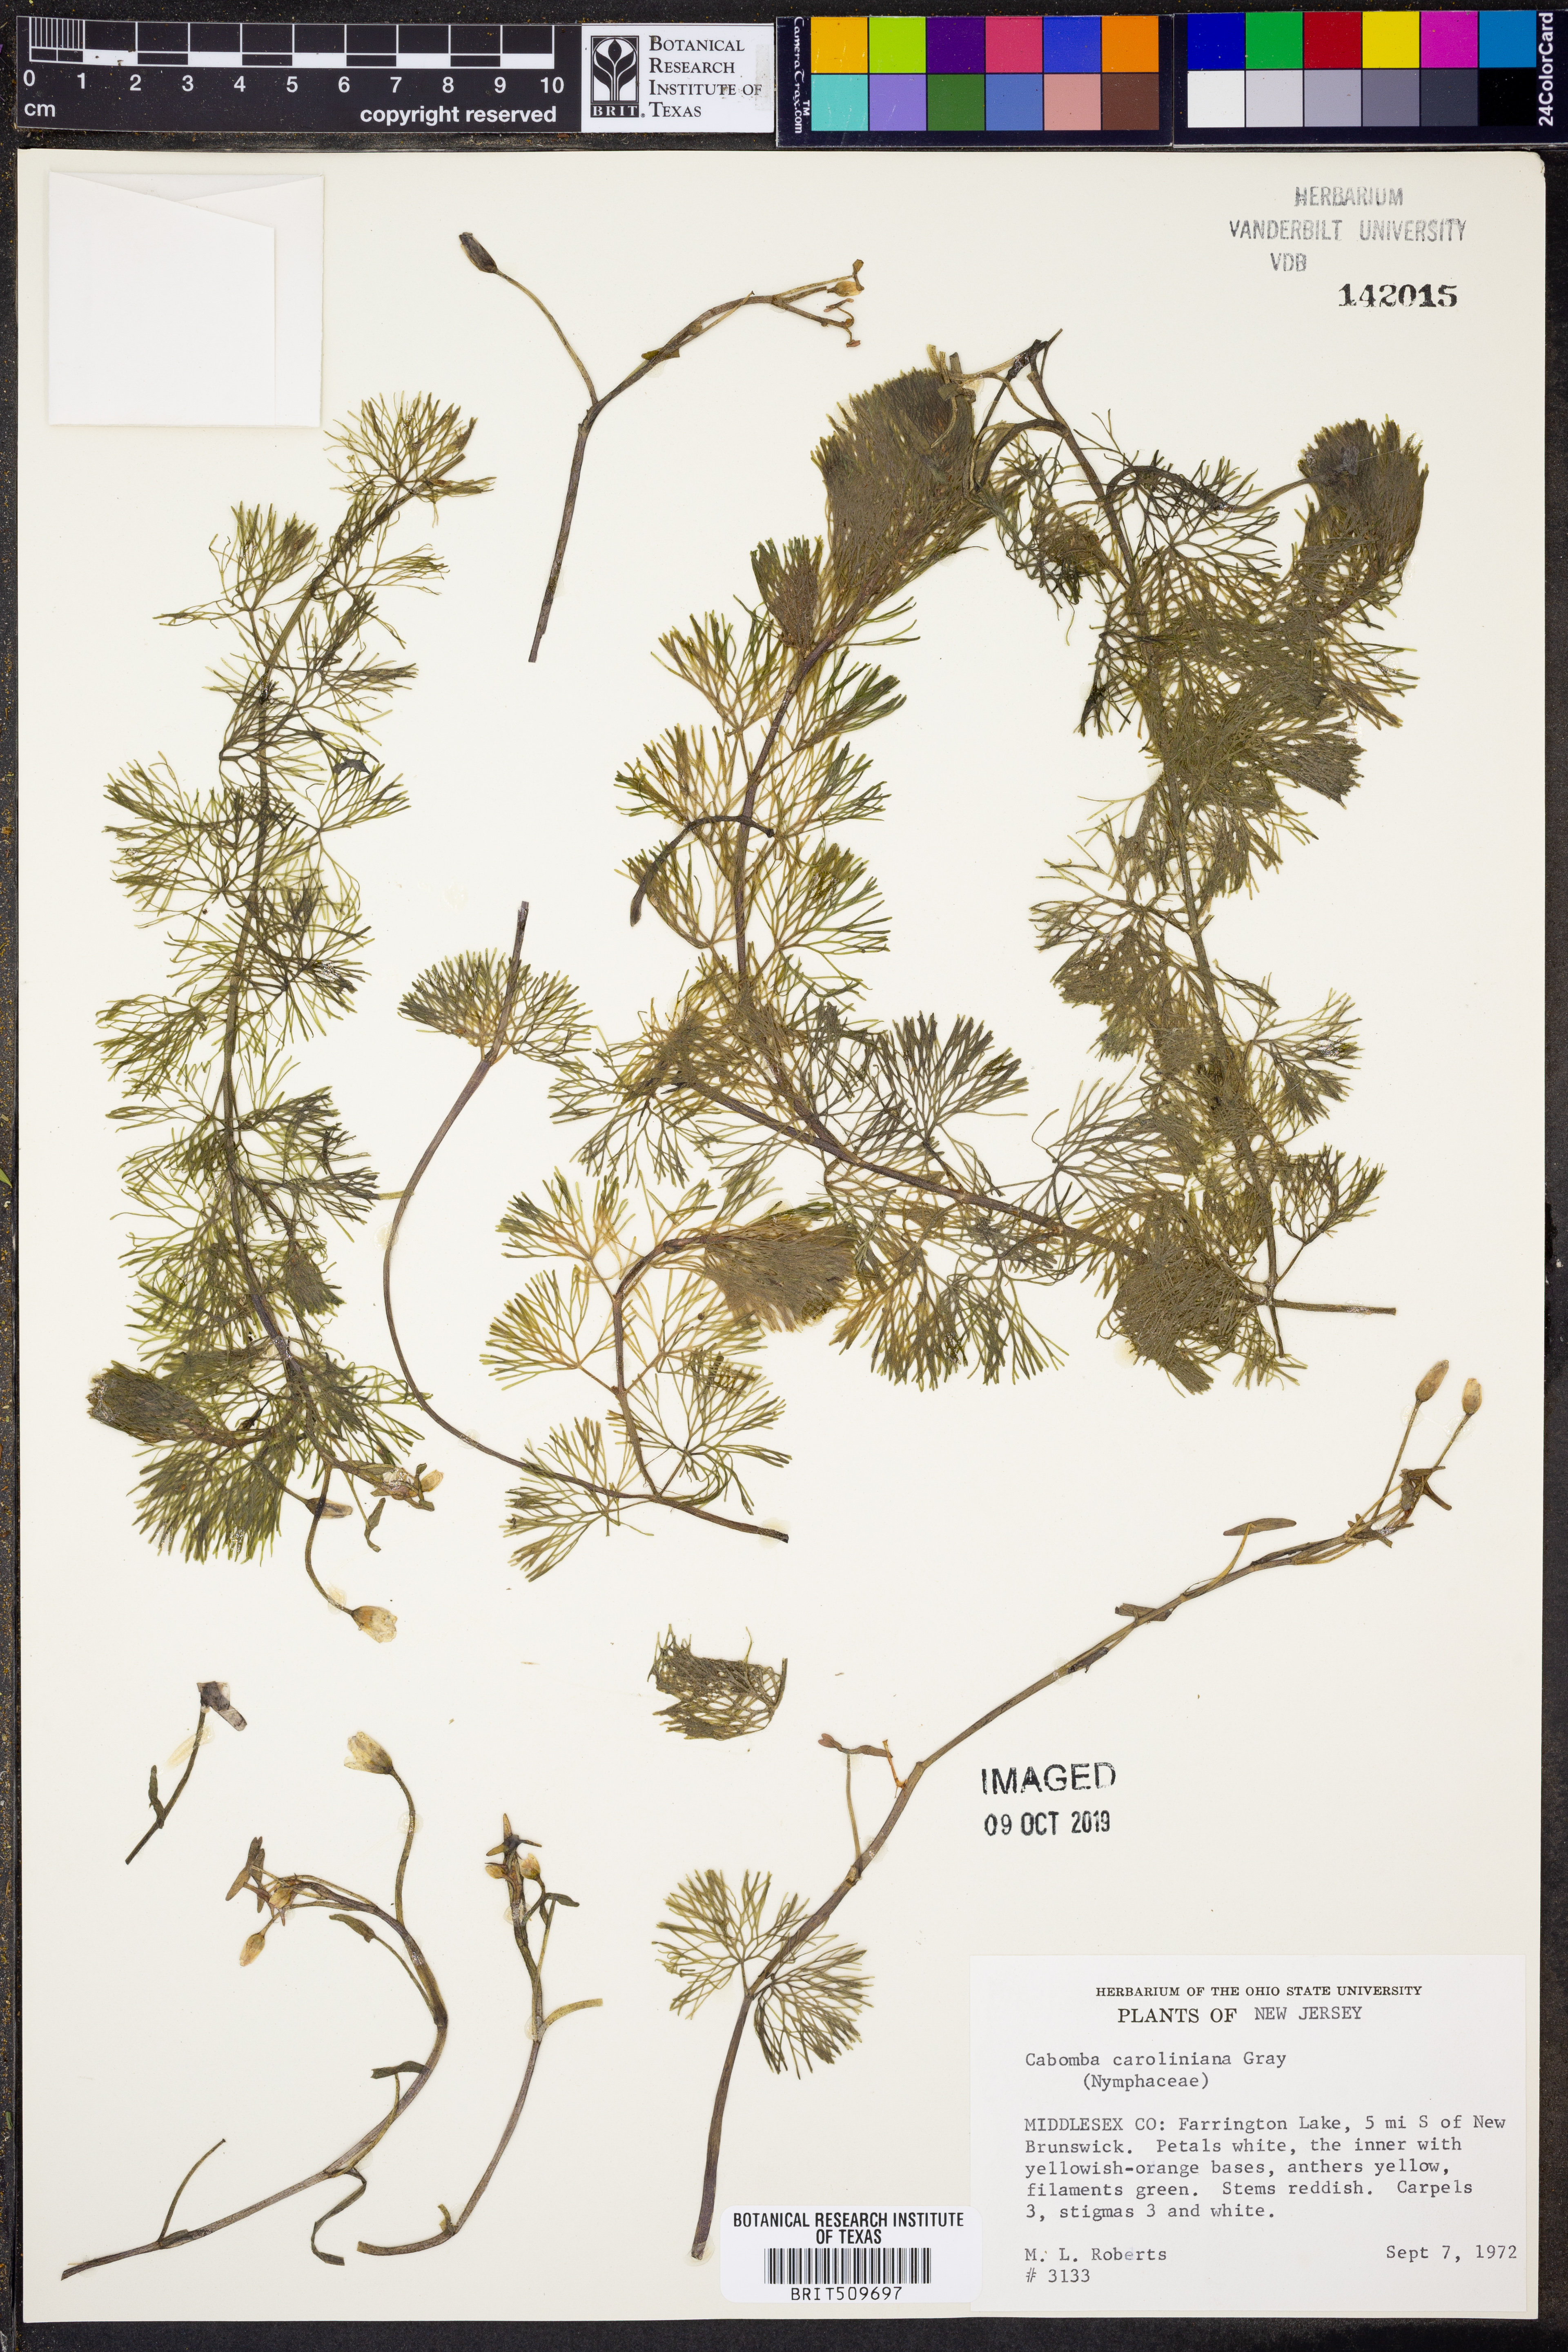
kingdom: Plantae
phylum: Tracheophyta
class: Magnoliopsida
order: Nymphaeales
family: Cabombaceae
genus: Cabomba
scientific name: Cabomba caroliniana
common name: Fanwort
